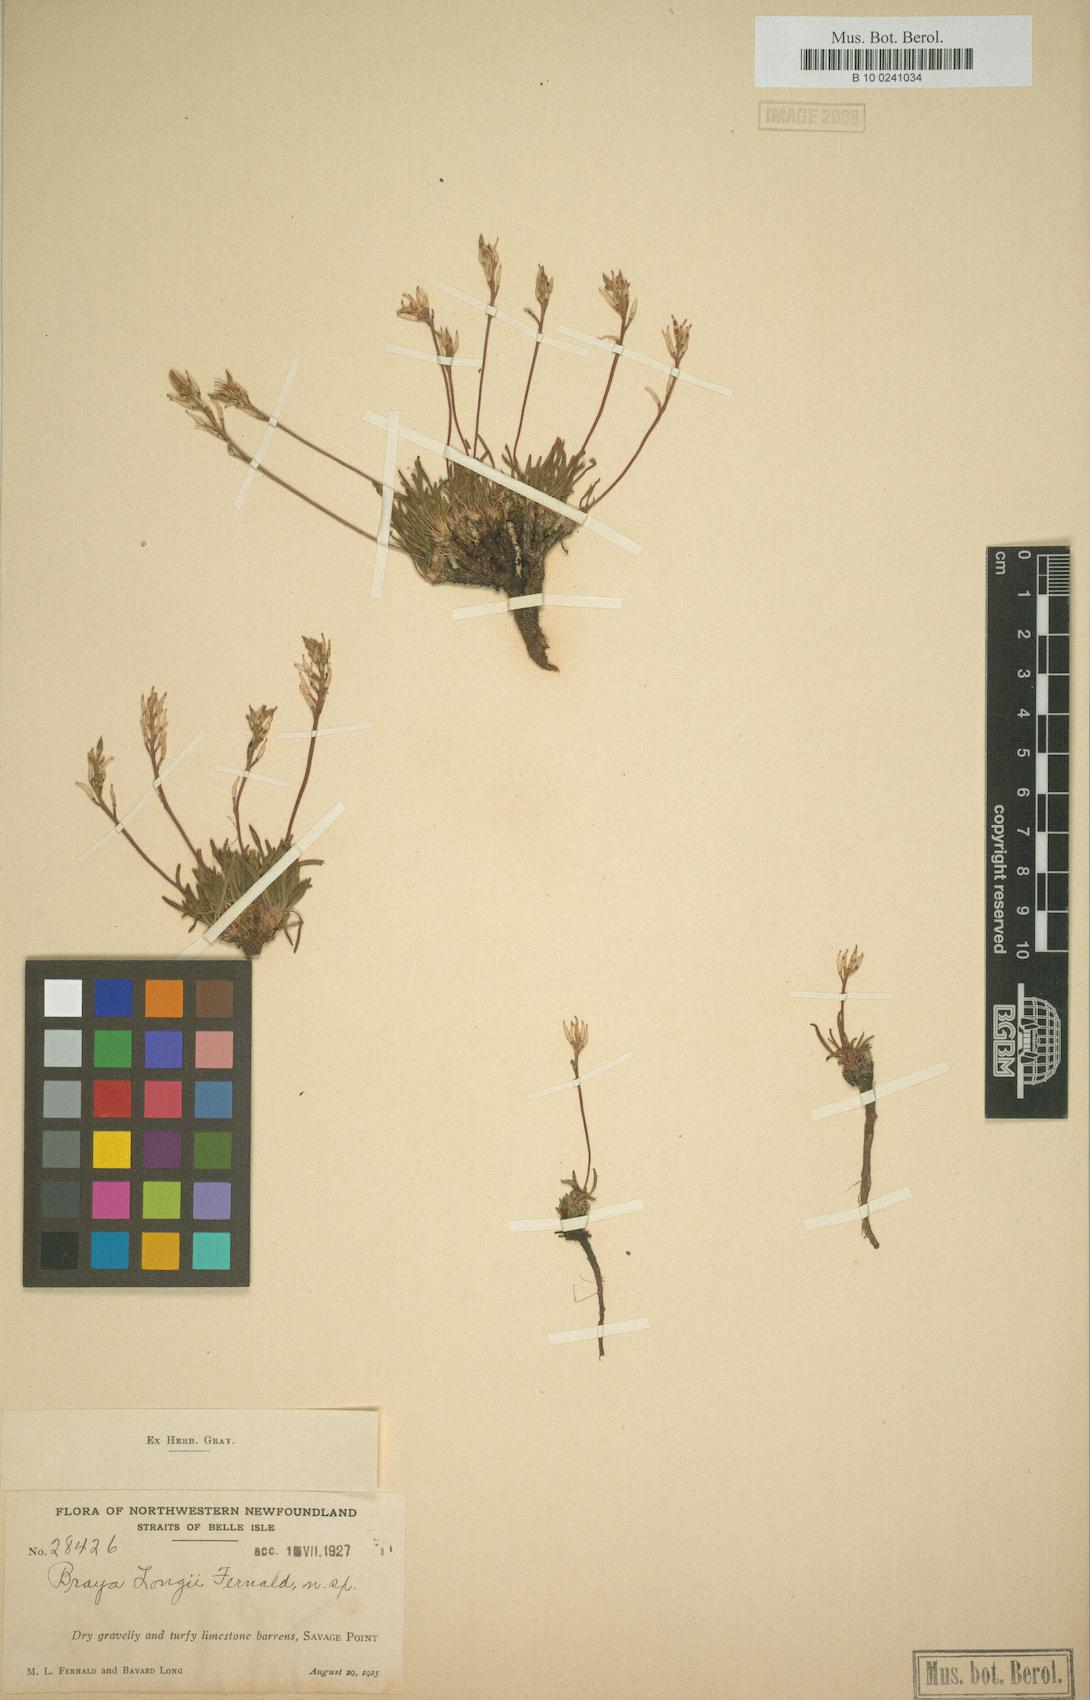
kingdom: Plantae
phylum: Tracheophyta
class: Magnoliopsida
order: Brassicales
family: Brassicaceae
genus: Braya
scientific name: Braya longii
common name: Long's braya
